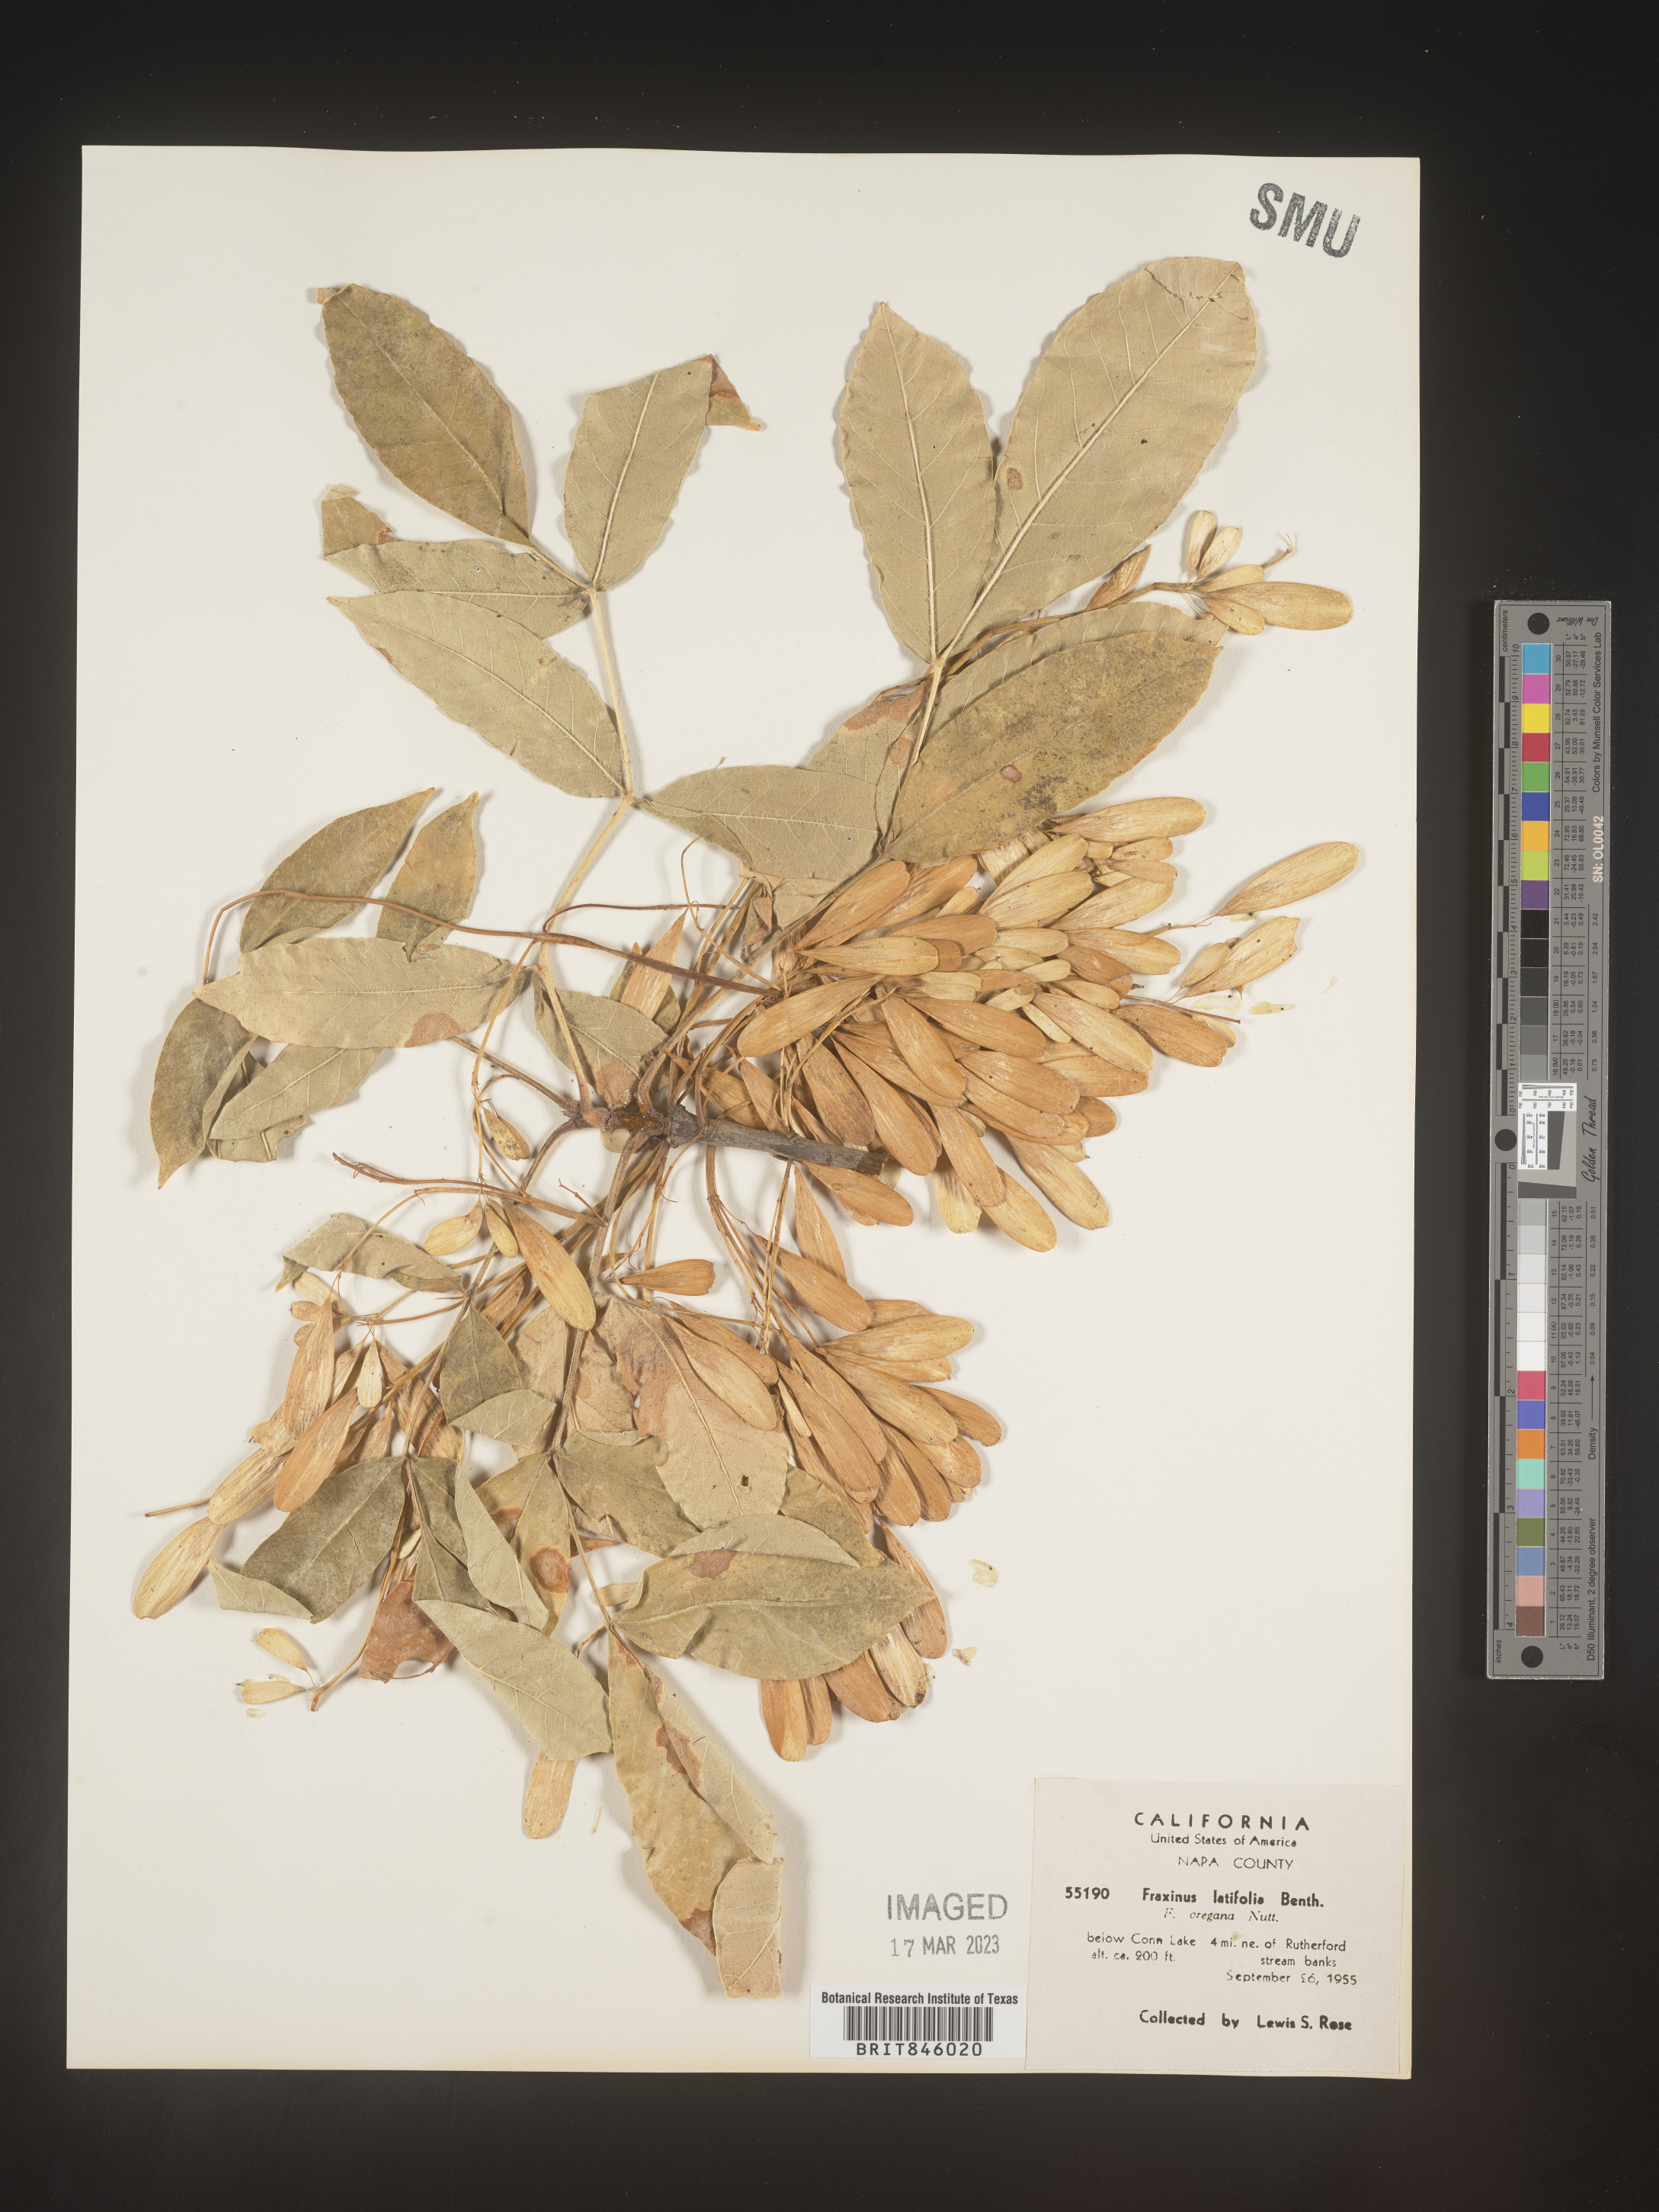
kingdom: Plantae
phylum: Tracheophyta
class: Magnoliopsida
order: Lamiales
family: Oleaceae
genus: Fraxinus
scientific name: Fraxinus latifolia
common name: Oregon ash
